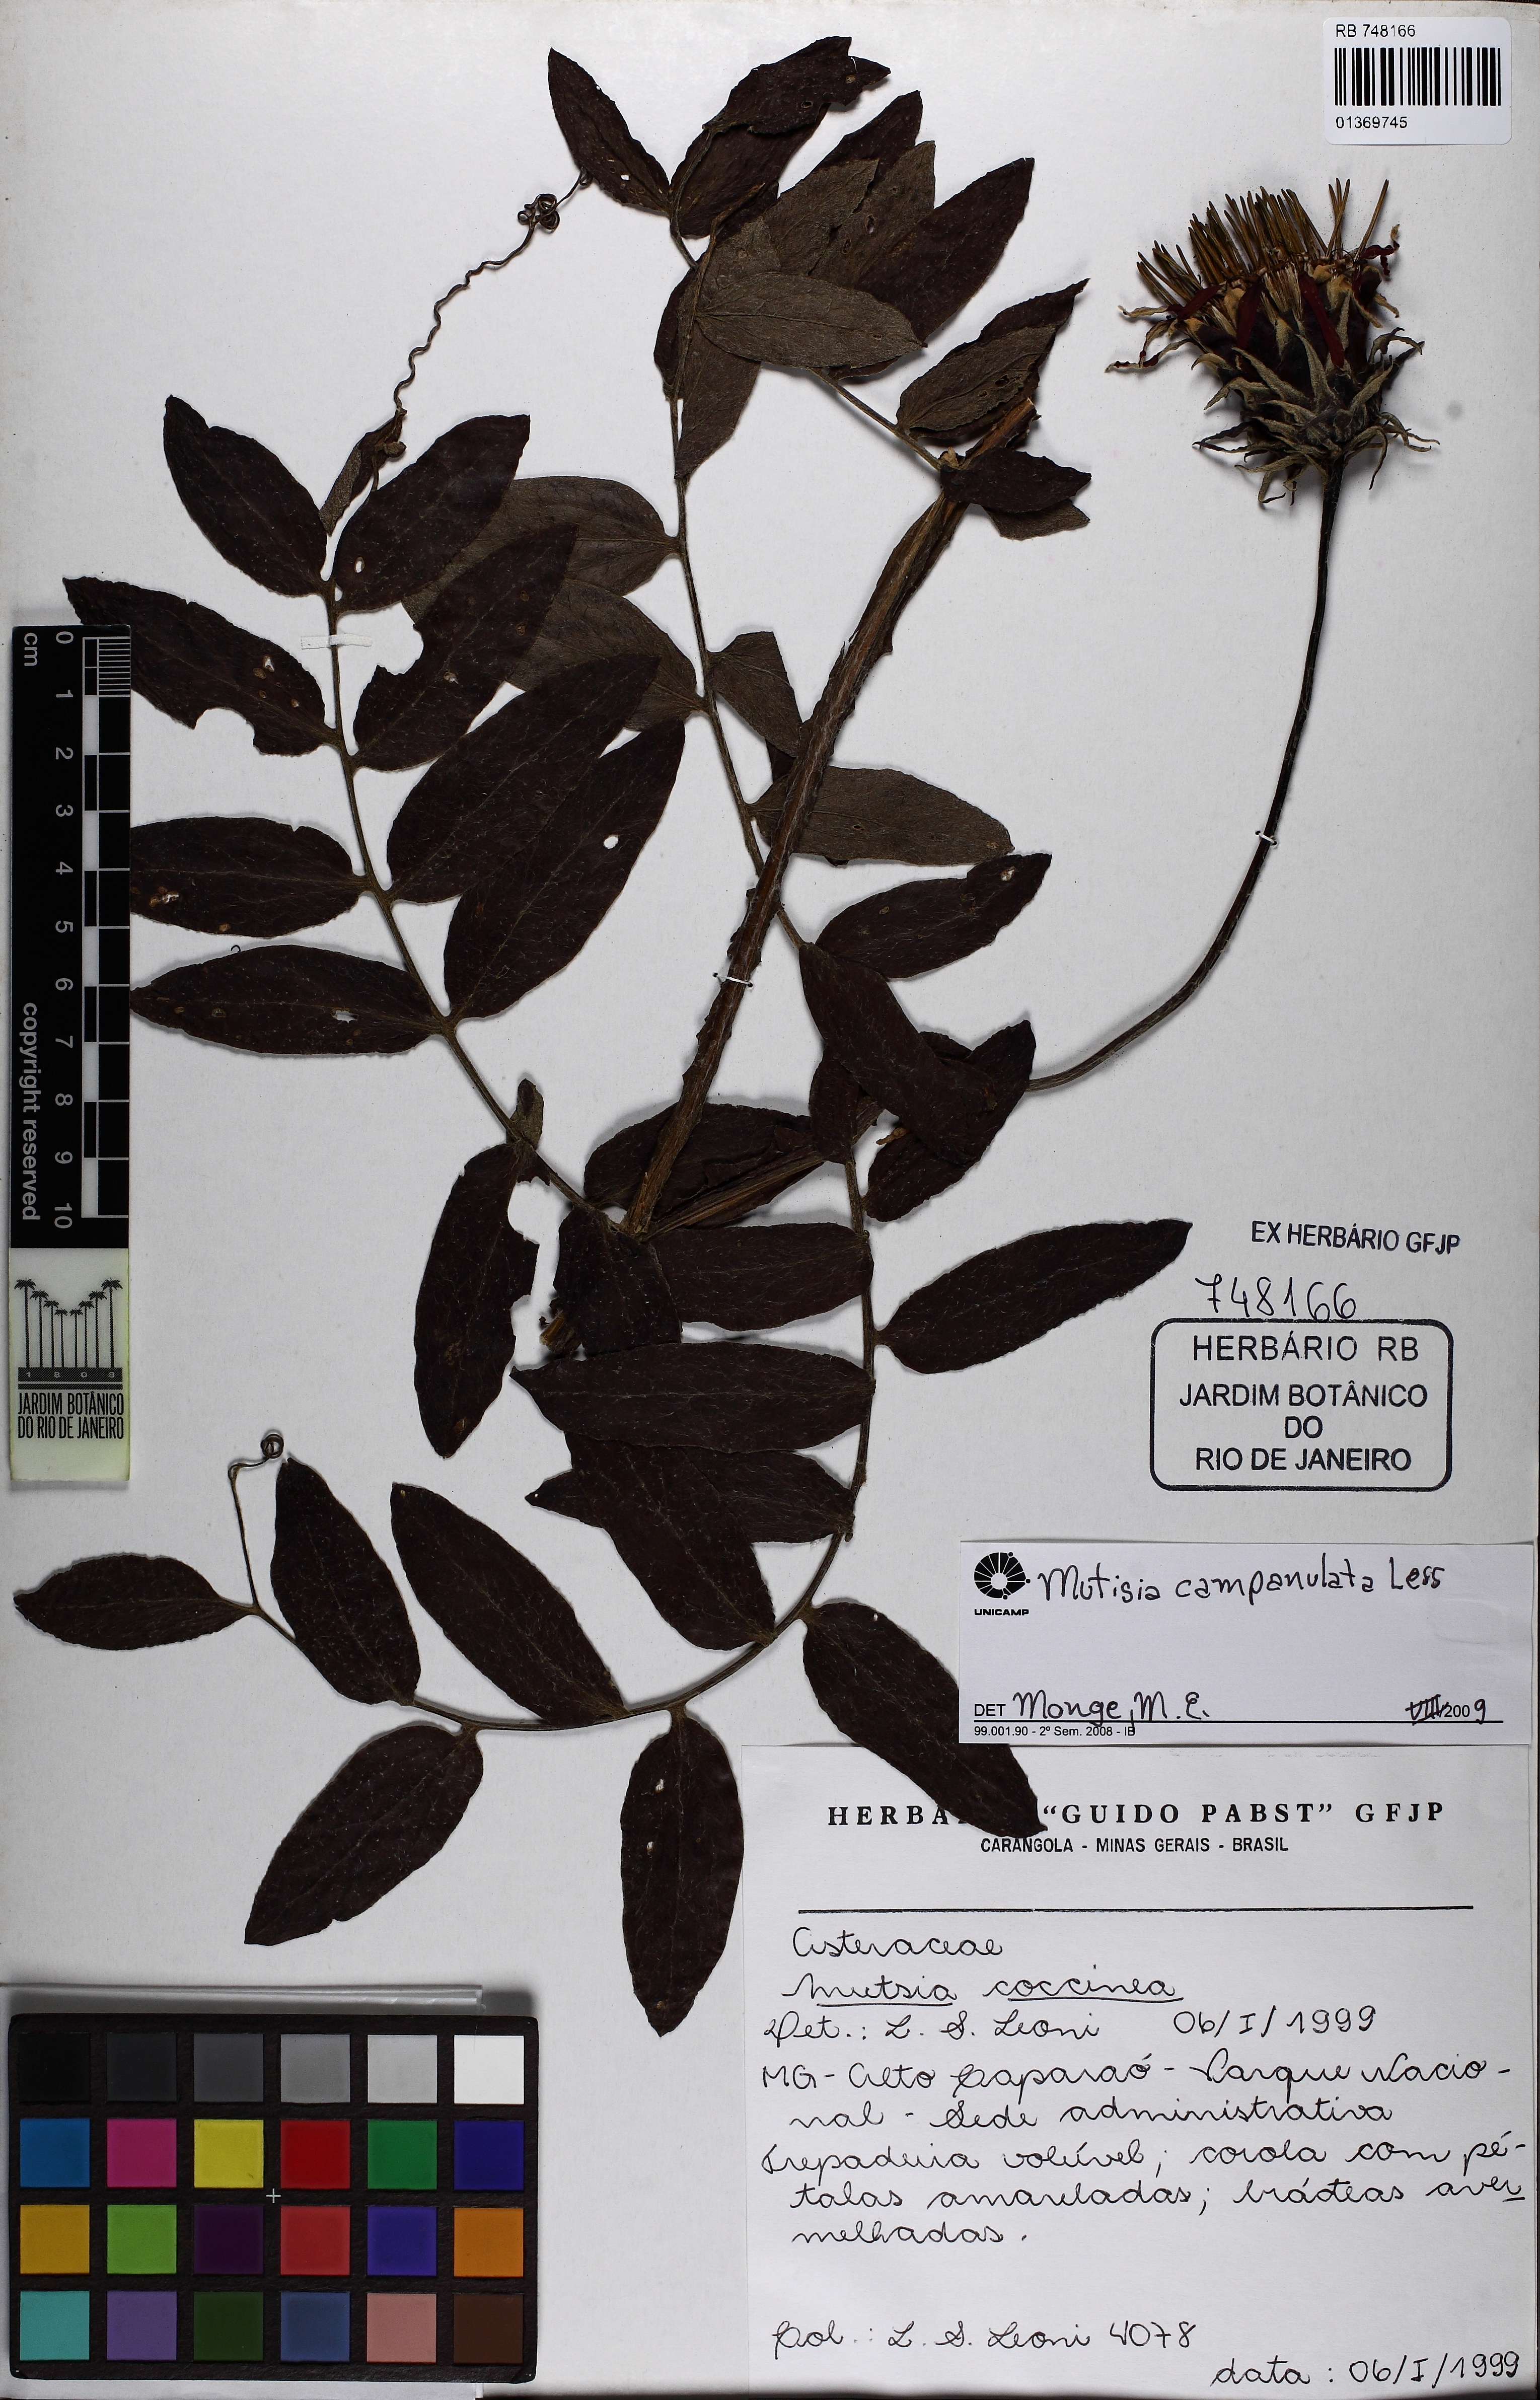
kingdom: Plantae
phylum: Tracheophyta
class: Magnoliopsida
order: Asterales
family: Asteraceae
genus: Mutisia
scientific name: Mutisia campanulata
